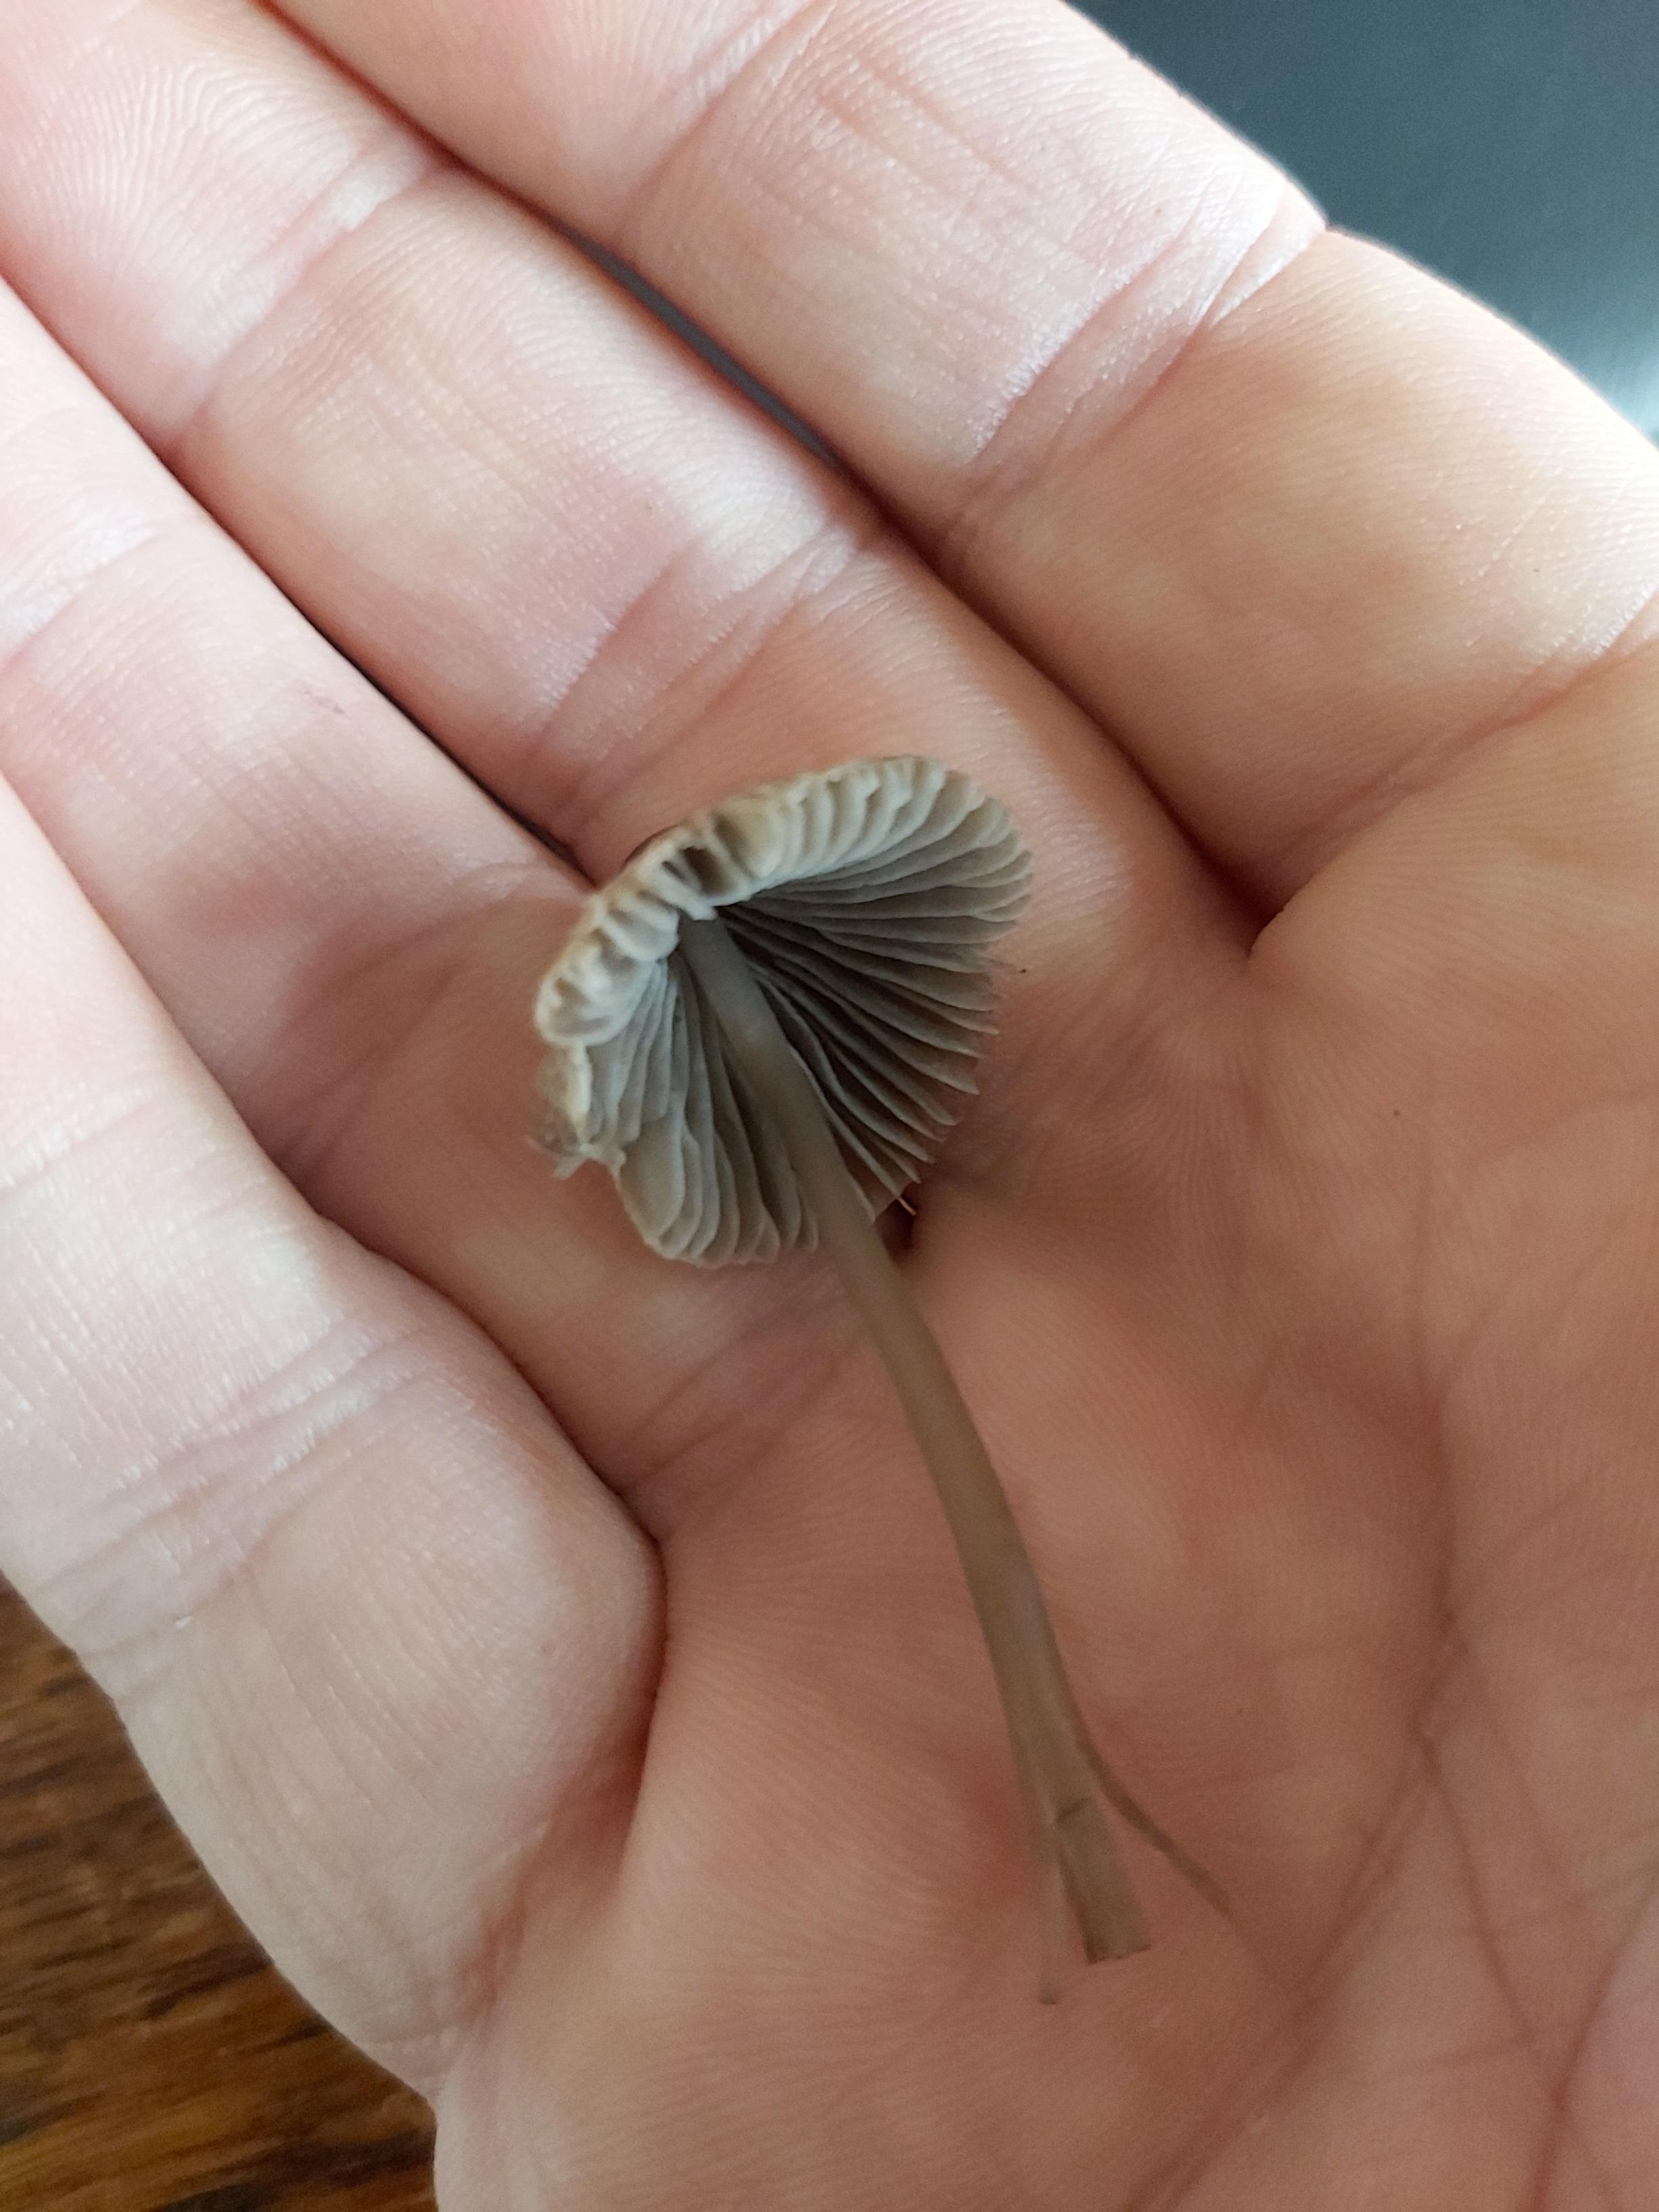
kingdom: Fungi
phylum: Basidiomycota
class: Agaricomycetes
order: Agaricales
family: Mycenaceae
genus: Mycena
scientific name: Mycena aetites
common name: plæne-huesvamp
